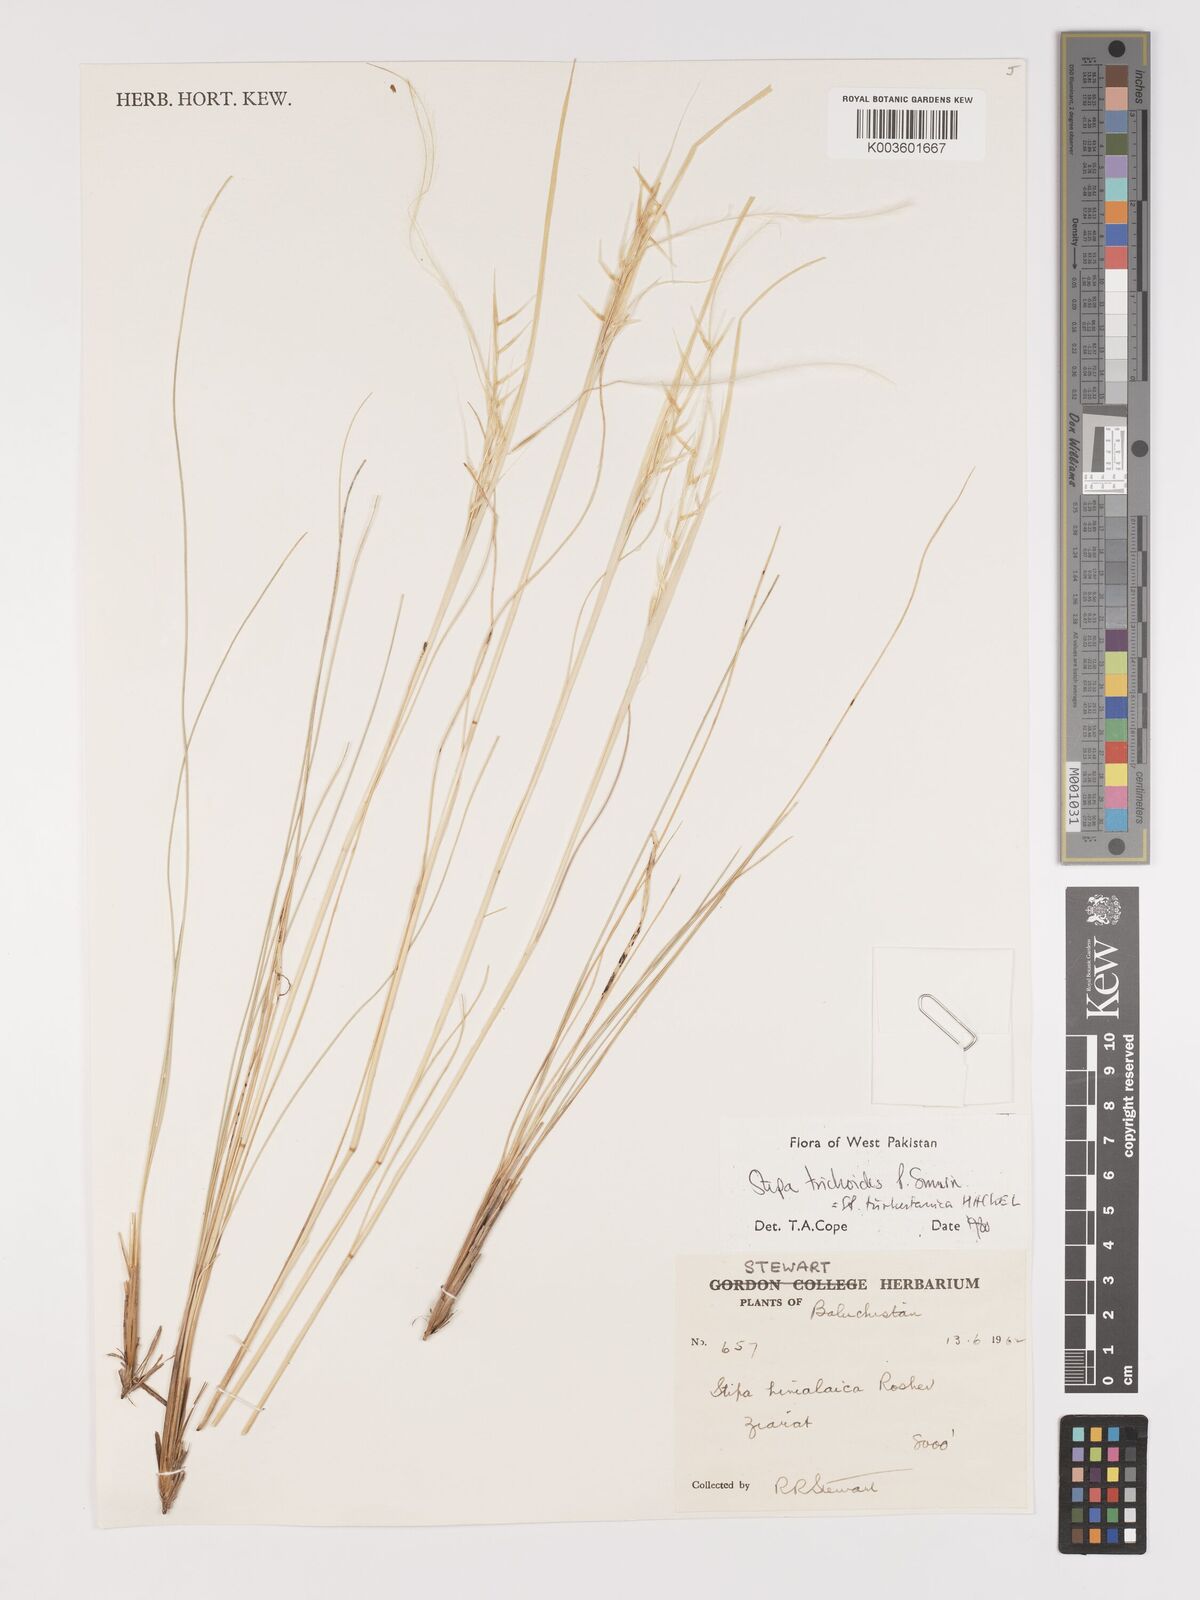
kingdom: Plantae
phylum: Tracheophyta
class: Liliopsida
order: Poales
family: Poaceae
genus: Stipa
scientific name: Stipa turkestanica
